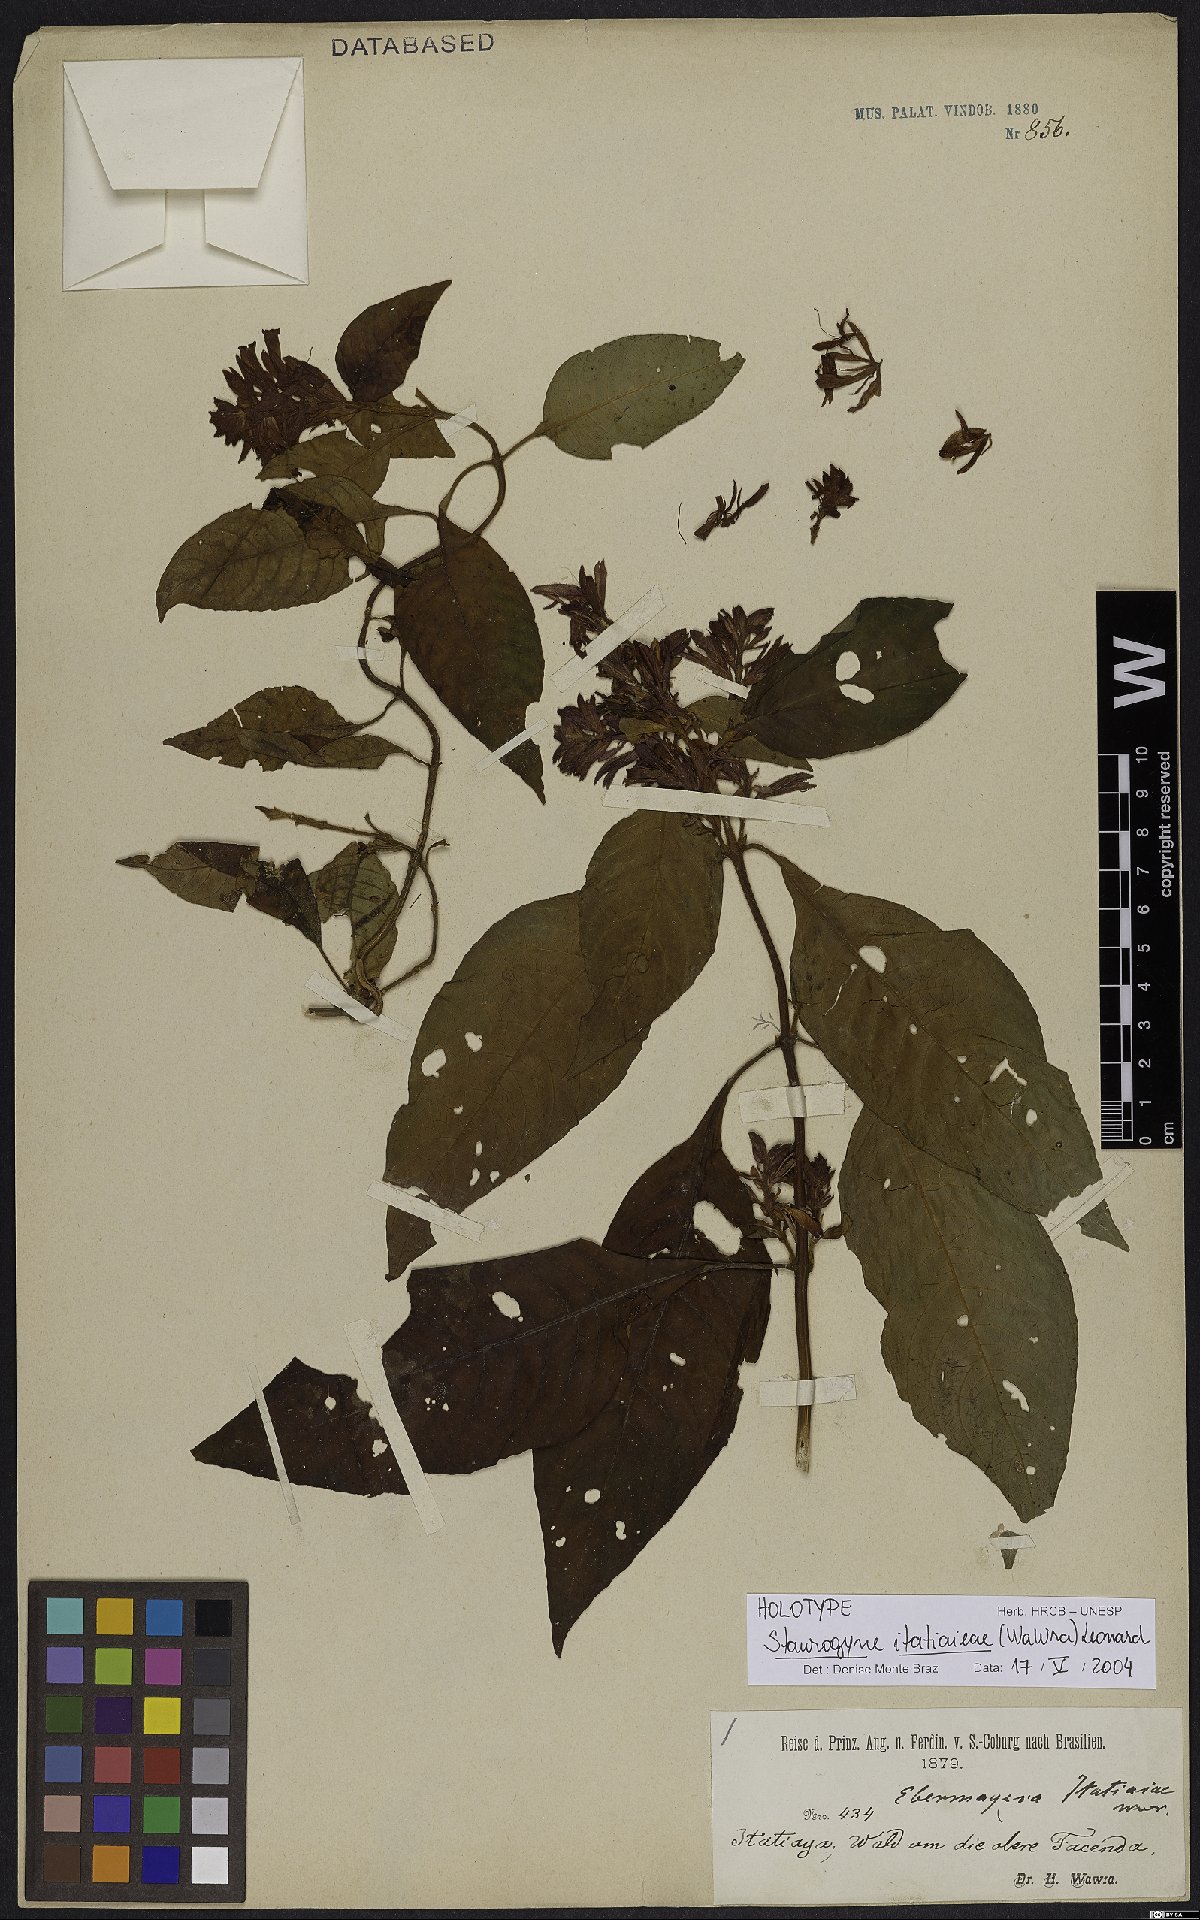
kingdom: Plantae
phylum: Tracheophyta
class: Magnoliopsida
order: Lamiales
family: Acanthaceae
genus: Staurogyne
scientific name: Staurogyne itatiaiae
